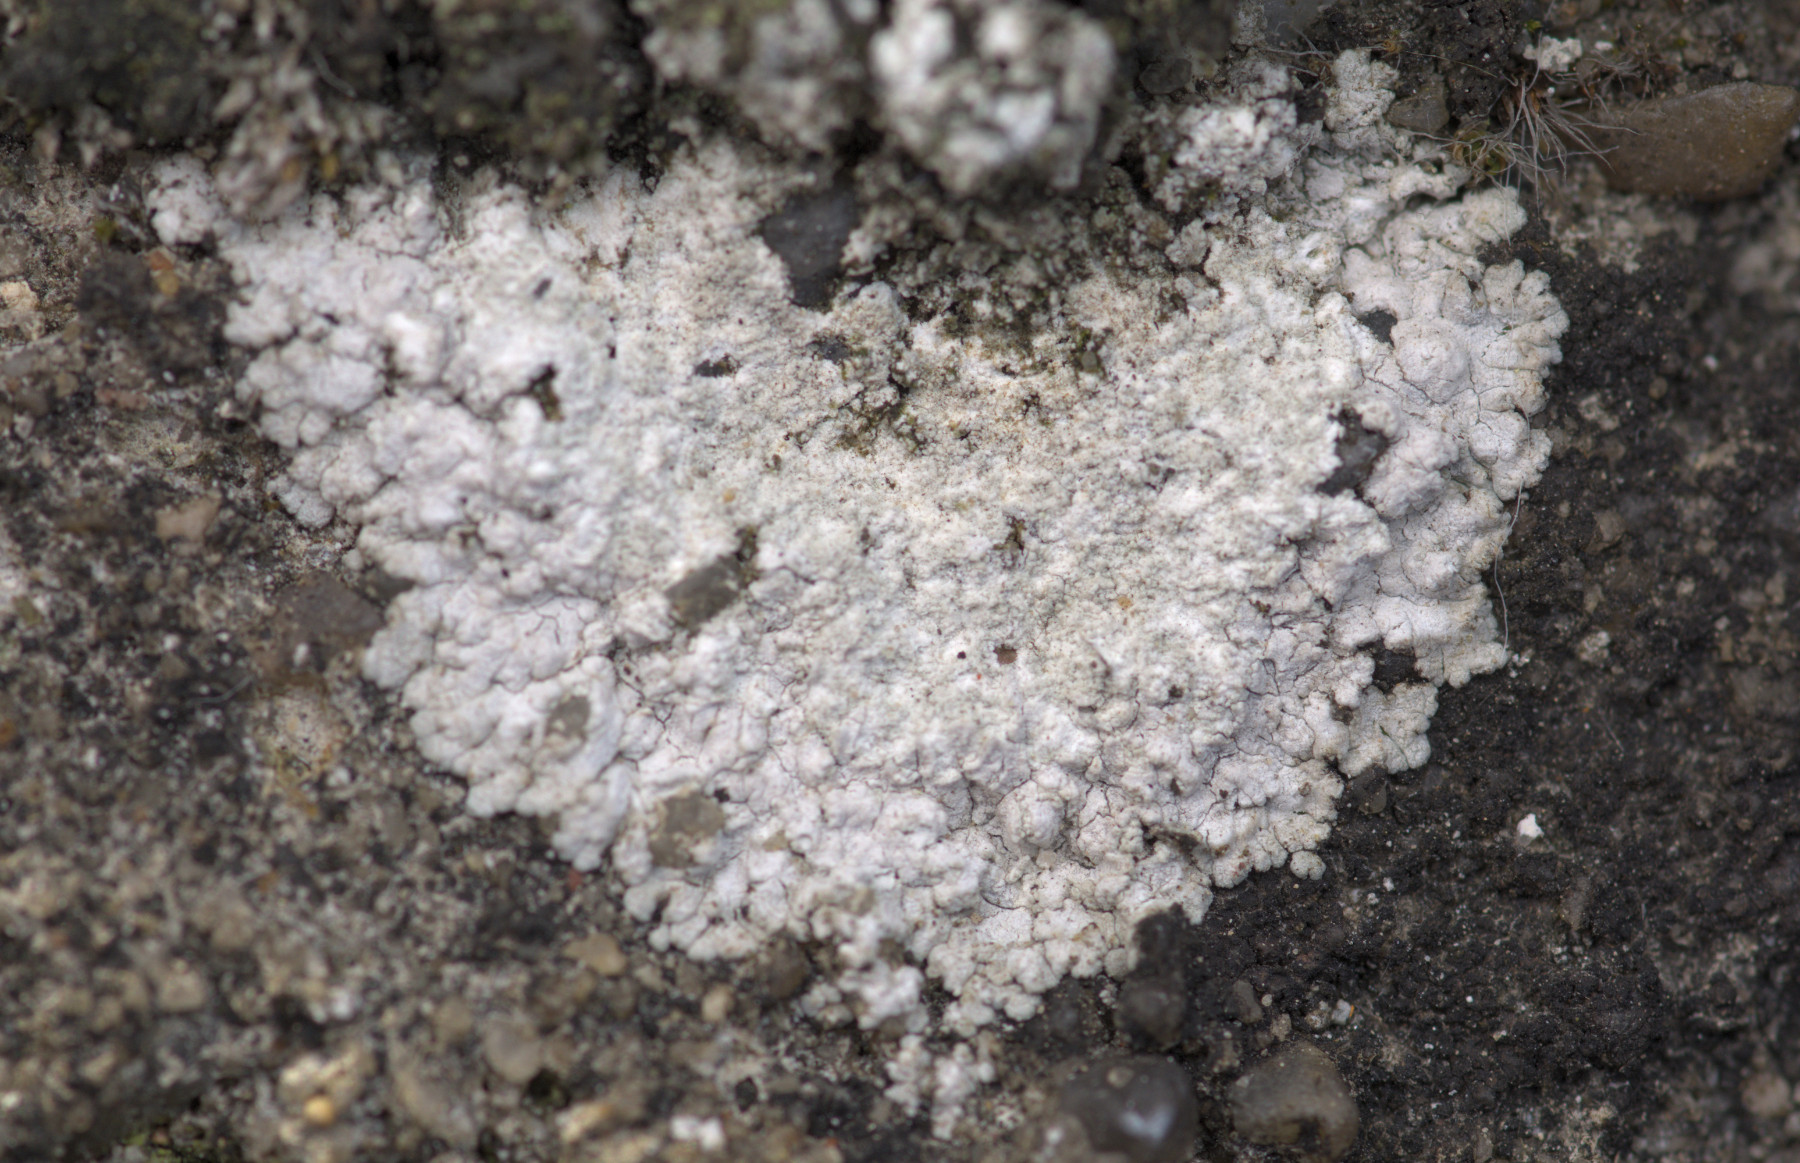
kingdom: Fungi
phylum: Ascomycota
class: Lecanoromycetes
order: Teloschistales
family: Teloschistaceae
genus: Kuettlingeria
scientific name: Kuettlingeria teicholyta
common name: grå orangelav
